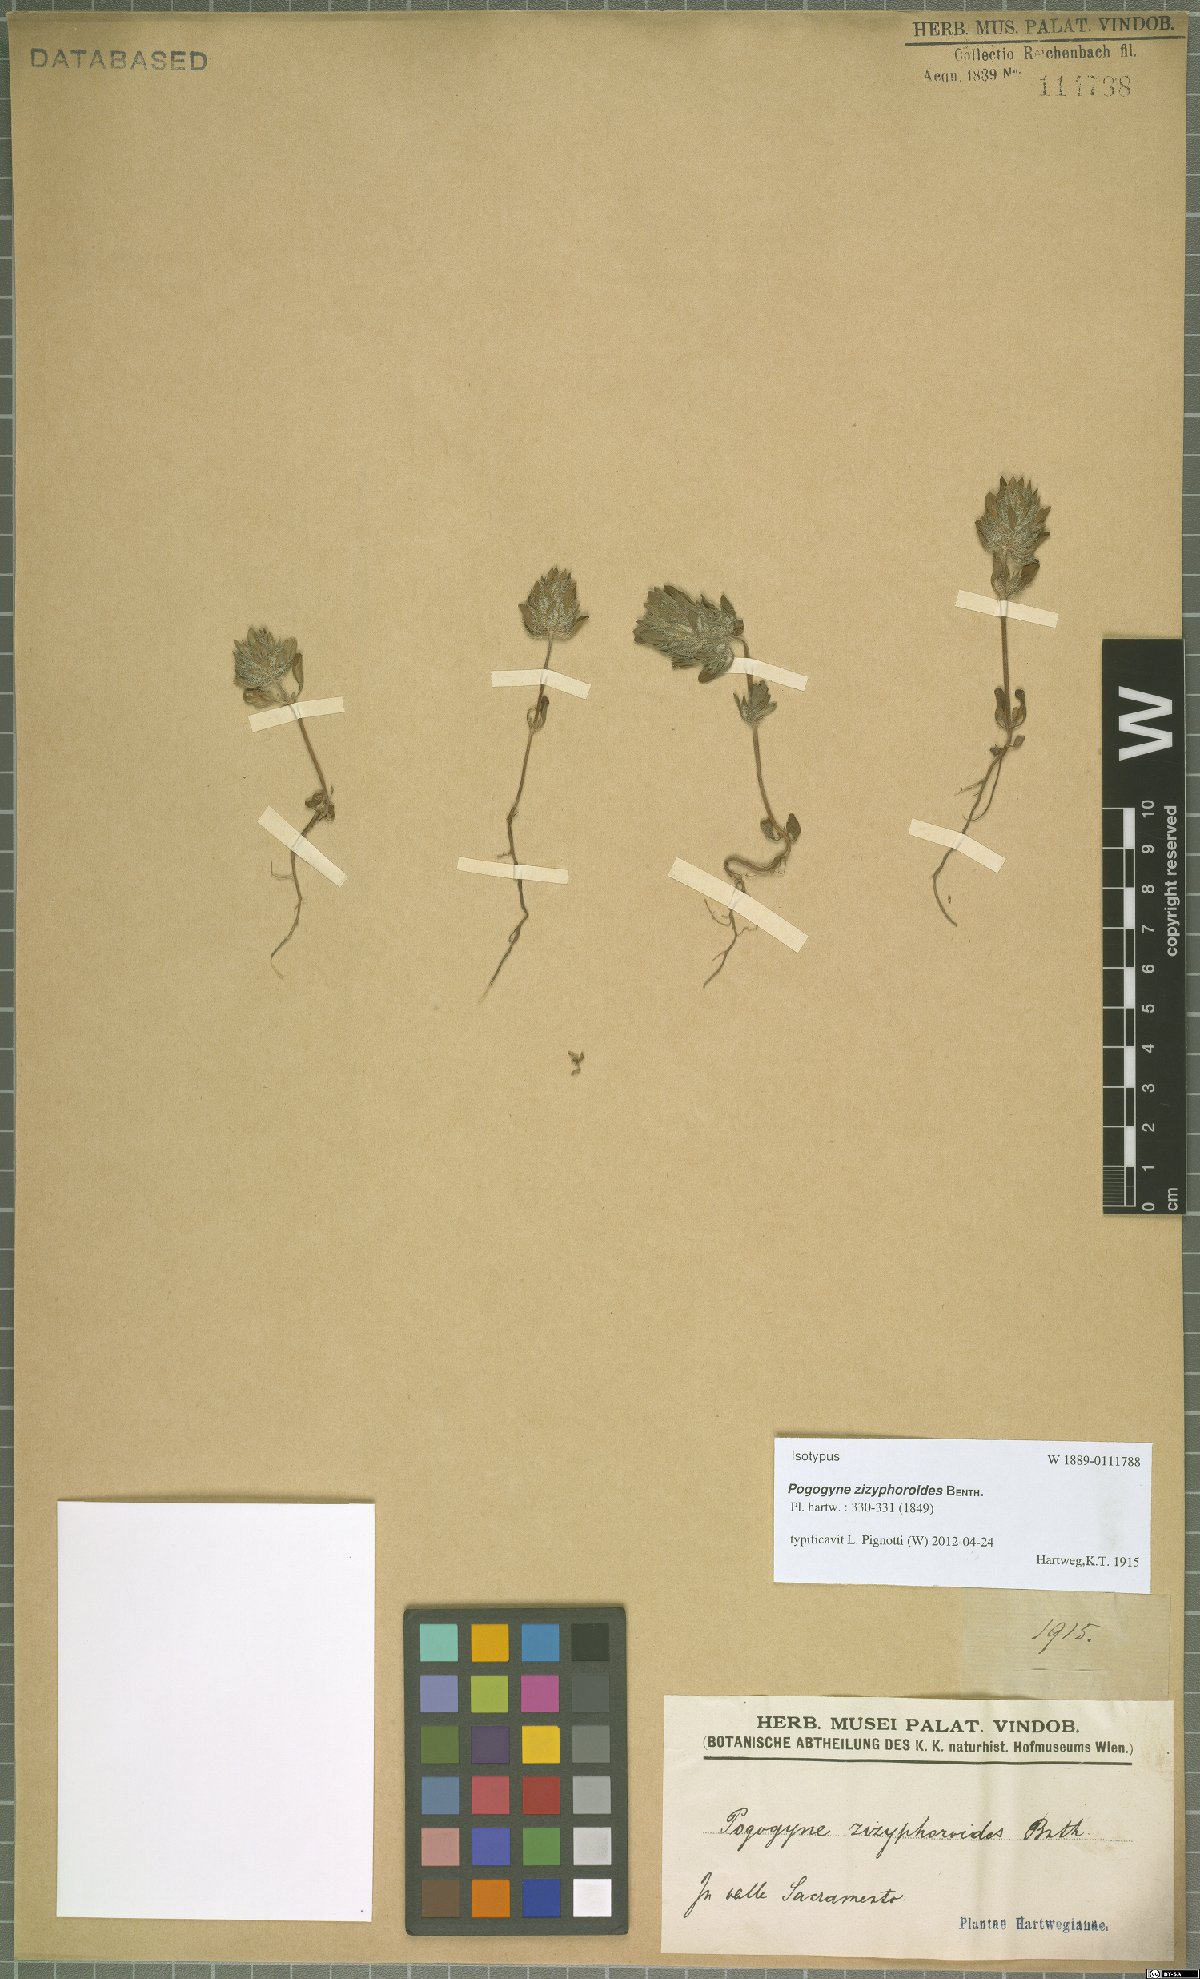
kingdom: Plantae
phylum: Tracheophyta
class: Magnoliopsida
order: Lamiales
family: Lamiaceae
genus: Pogogyne
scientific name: Pogogyne zizyphoroides
